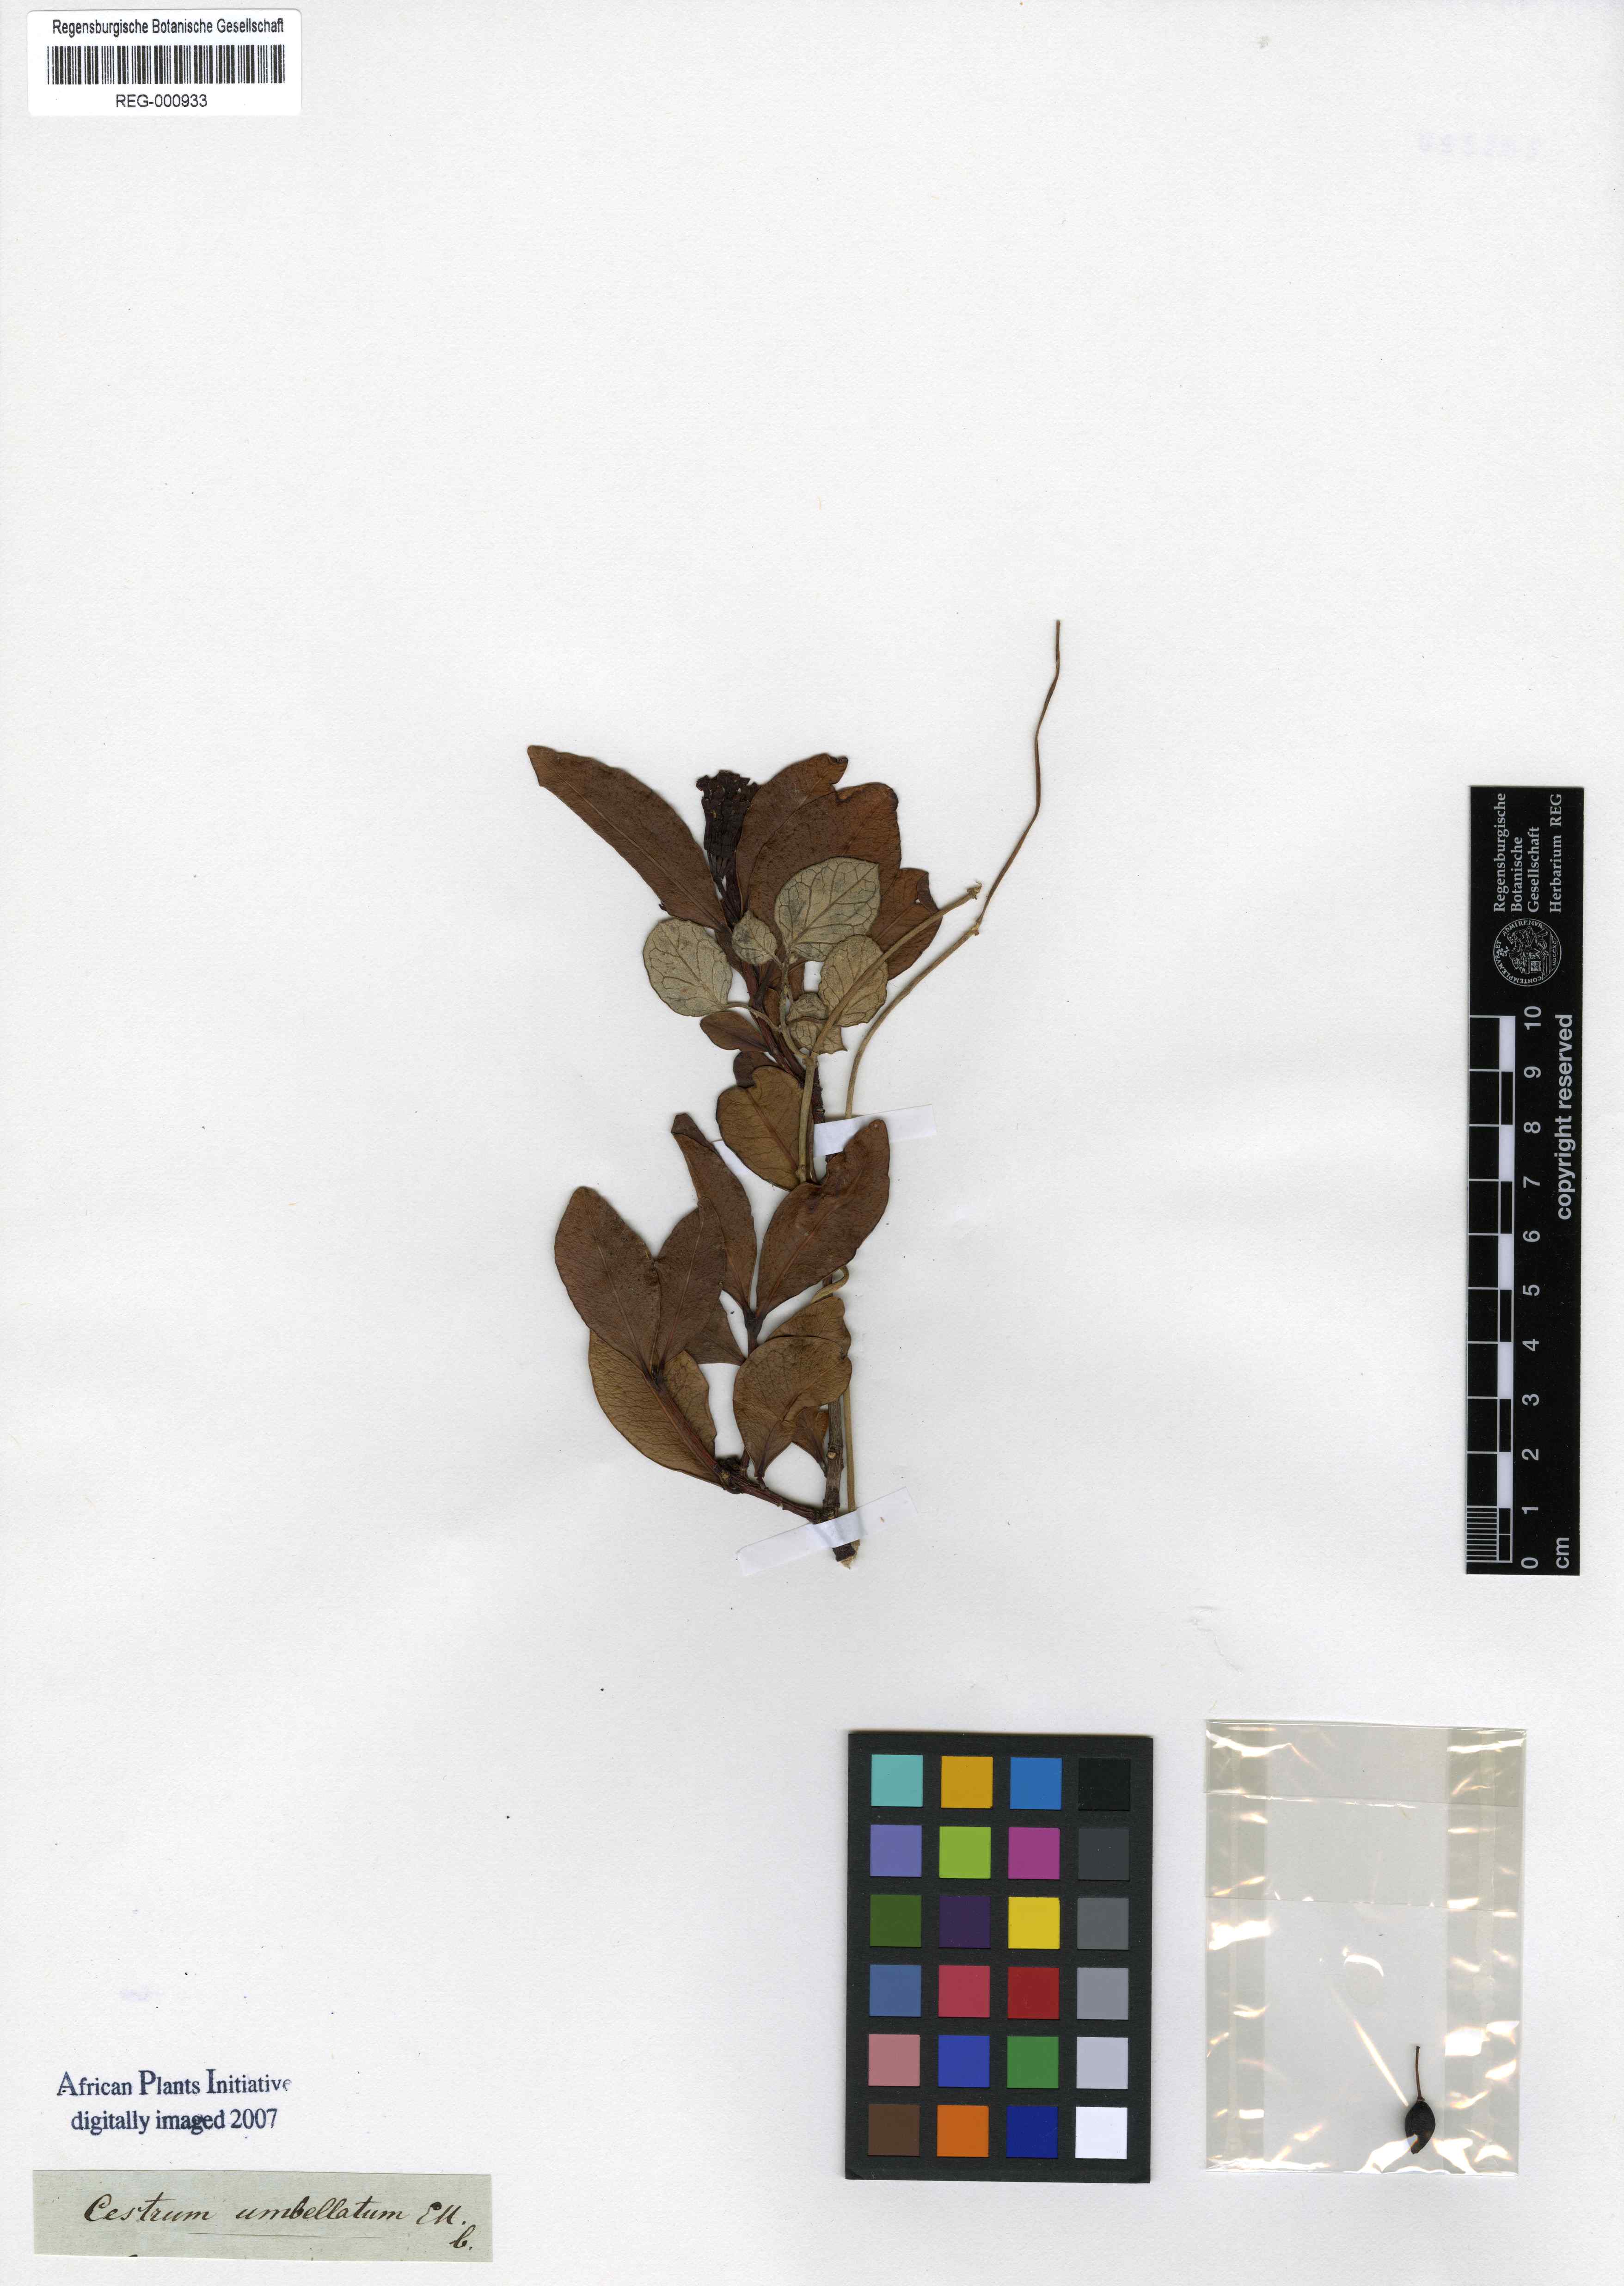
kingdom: Plantae
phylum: Tracheophyta
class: Magnoliopsida
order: Malvales
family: Thymelaeaceae
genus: Peddiea
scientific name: Peddiea africana
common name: Poison olive
